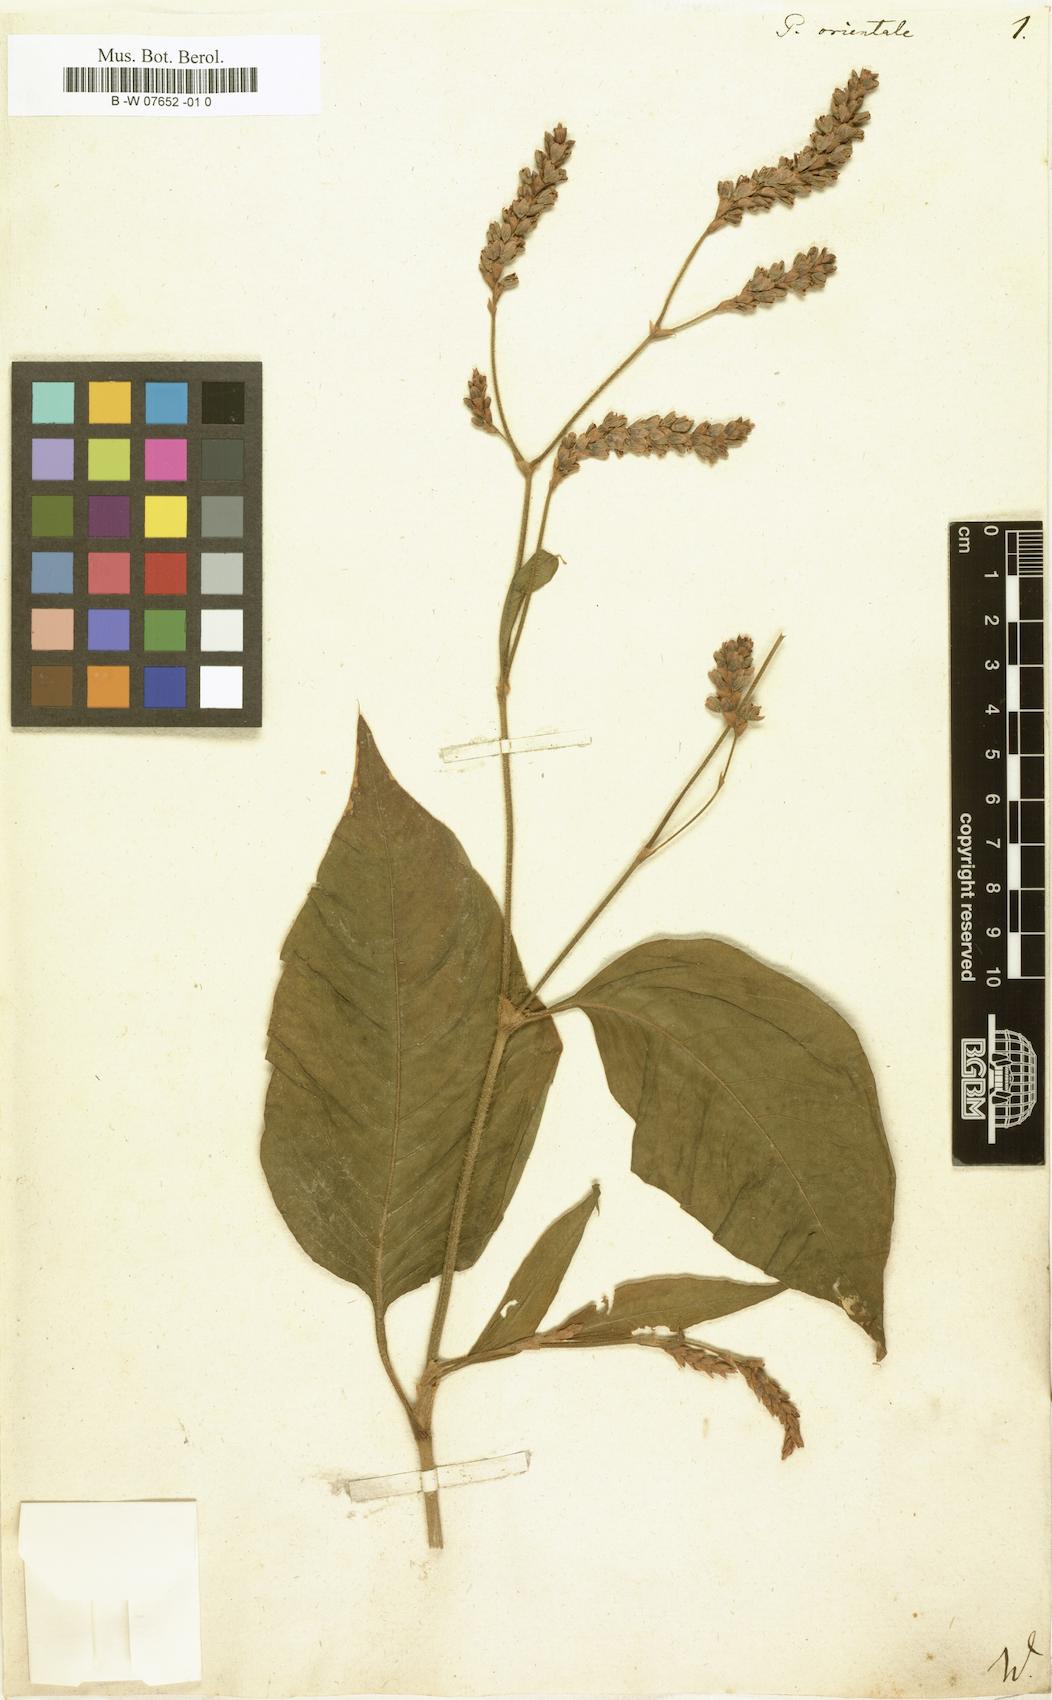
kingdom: Plantae
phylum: Tracheophyta
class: Magnoliopsida
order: Caryophyllales
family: Polygonaceae
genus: Persicaria
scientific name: Persicaria orientalis
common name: Kiss-me-over-the-garden-gate
